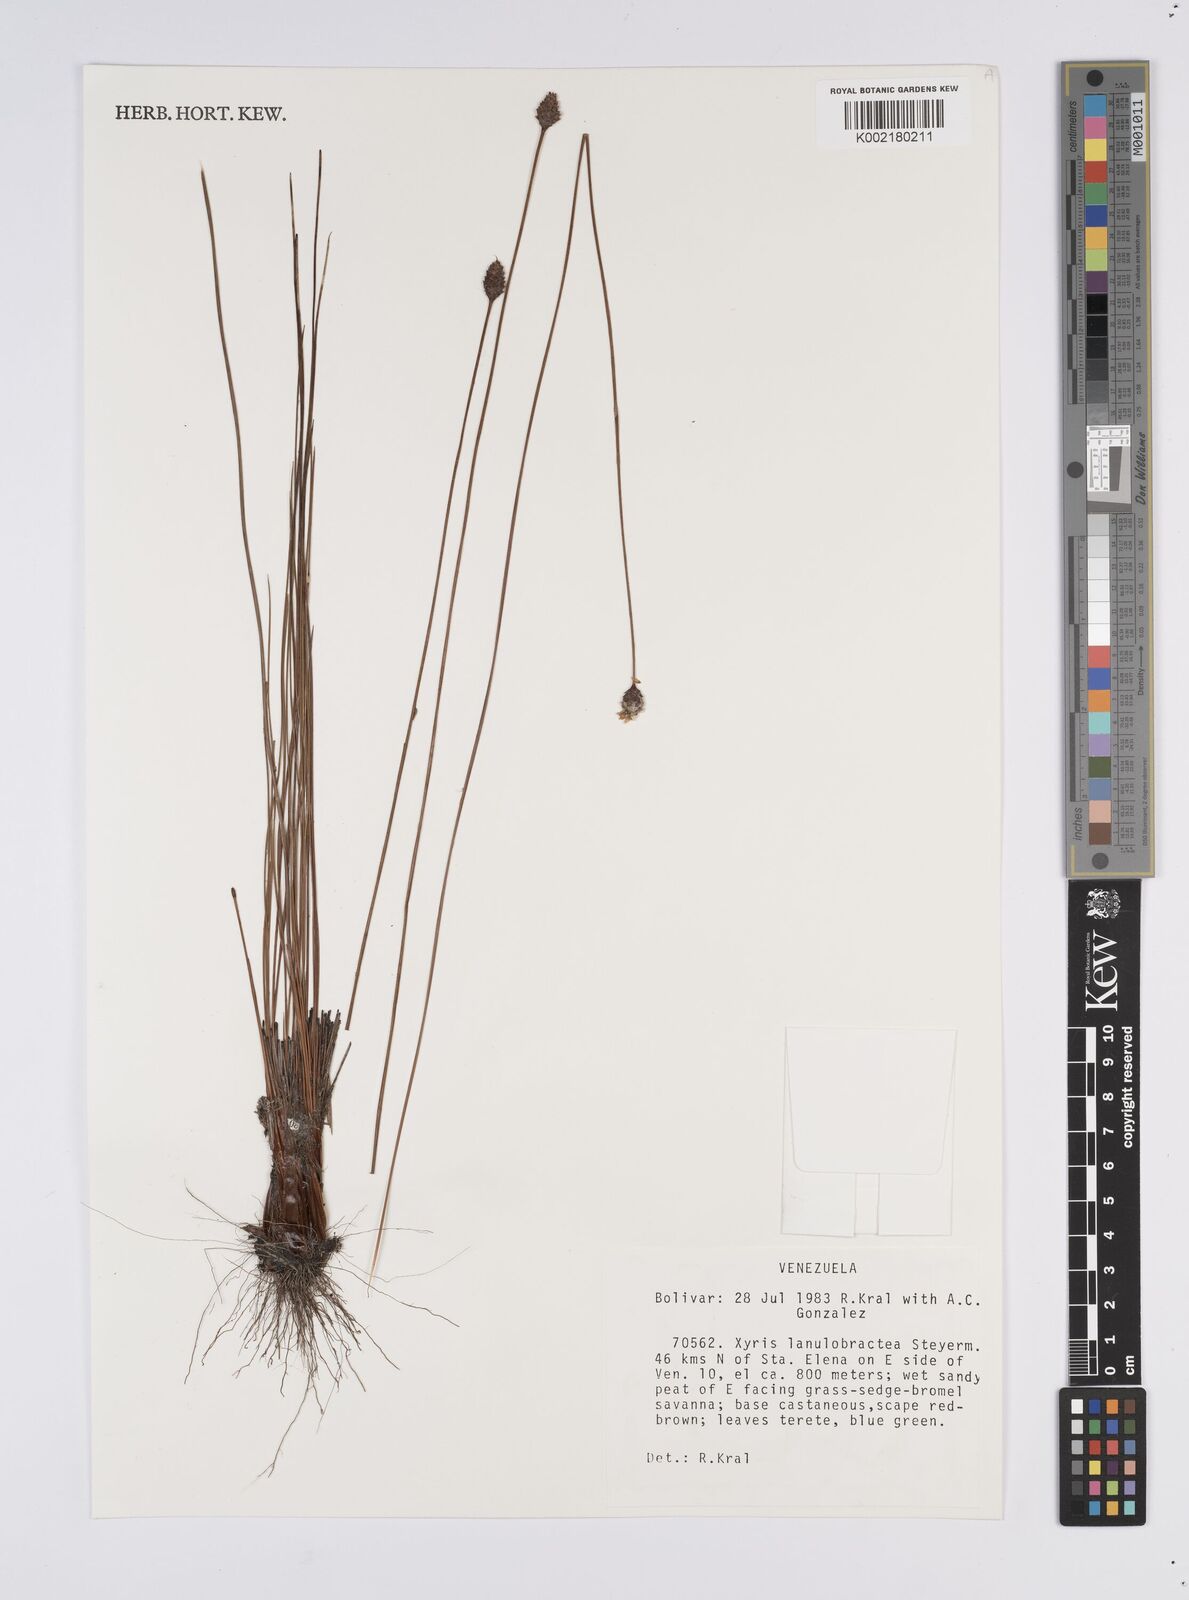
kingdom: Plantae
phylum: Tracheophyta
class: Liliopsida
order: Poales
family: Xyridaceae
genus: Xyris
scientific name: Xyris lanulobractea
